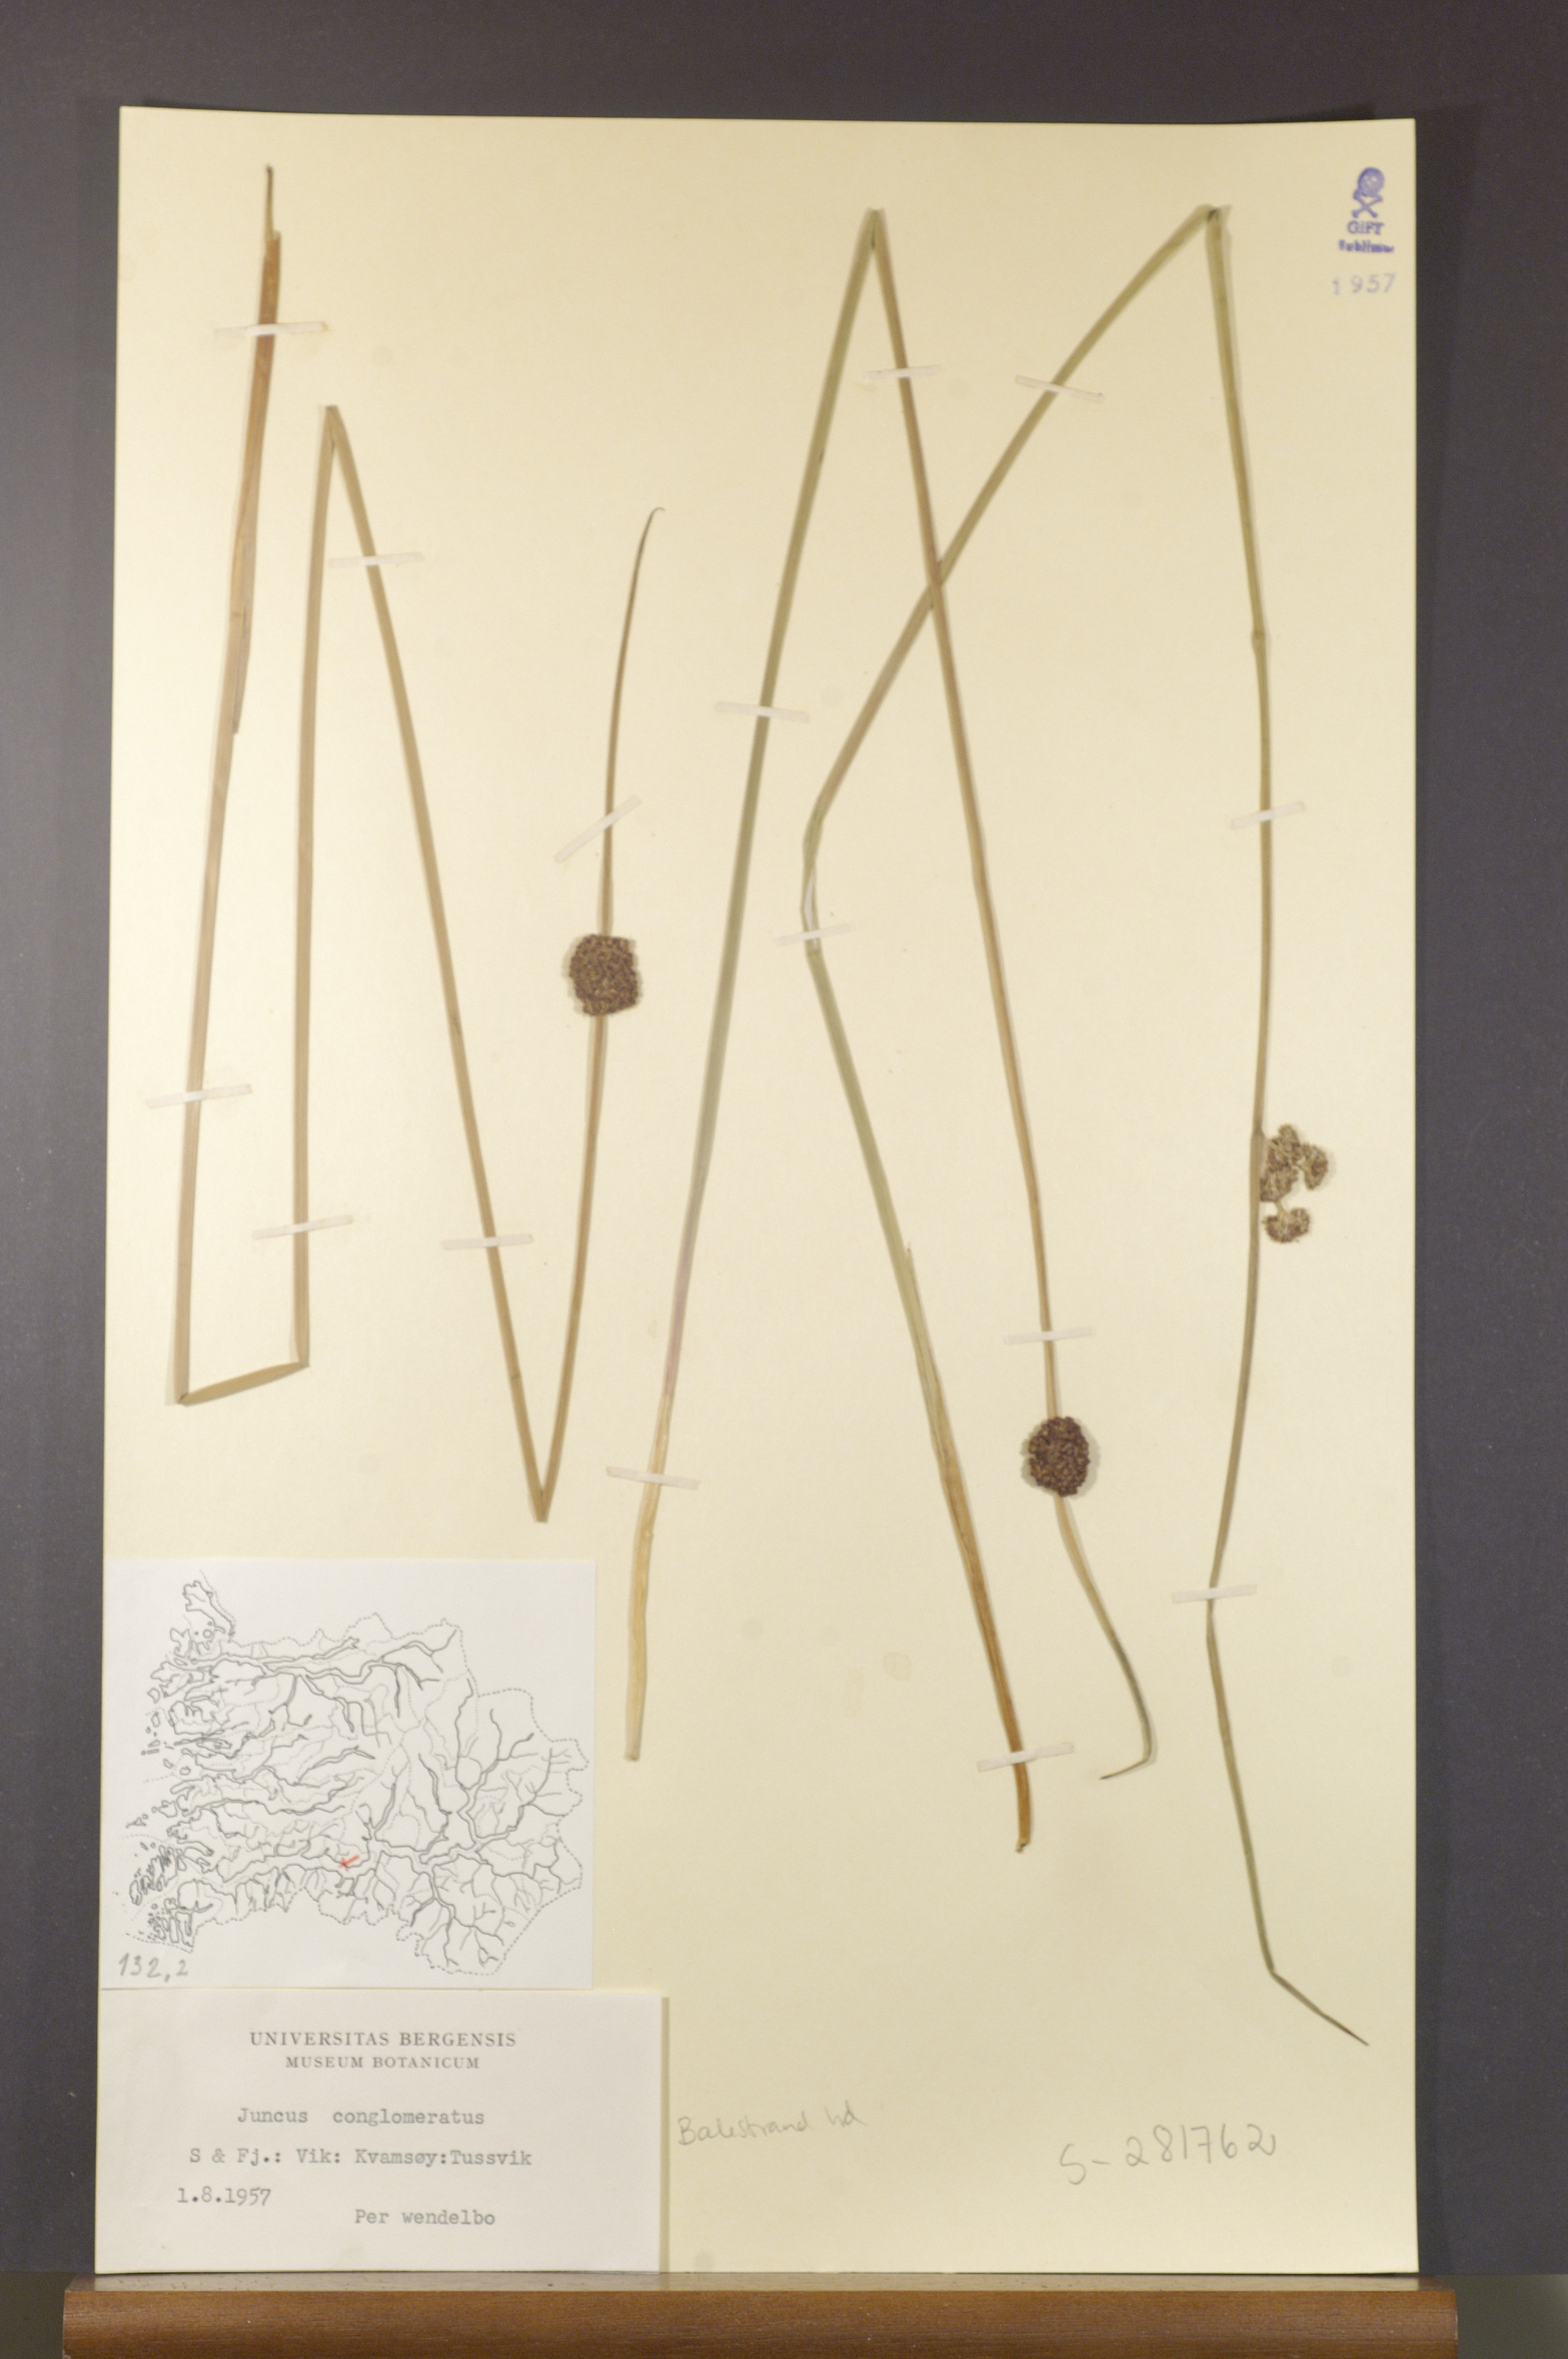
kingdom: Plantae
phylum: Tracheophyta
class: Liliopsida
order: Poales
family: Juncaceae
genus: Juncus
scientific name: Juncus conglomeratus
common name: Compact rush
